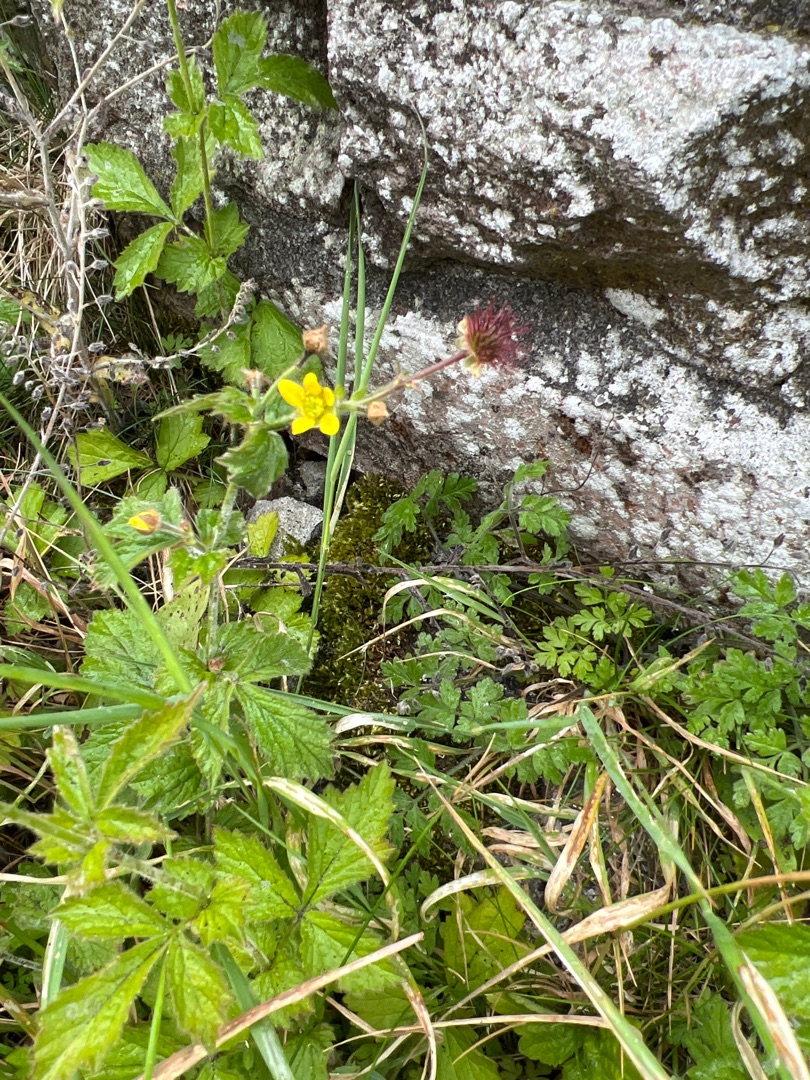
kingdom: Plantae
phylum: Tracheophyta
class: Magnoliopsida
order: Rosales
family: Rosaceae
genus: Geum
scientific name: Geum urbanum
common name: Feber-nellikerod
